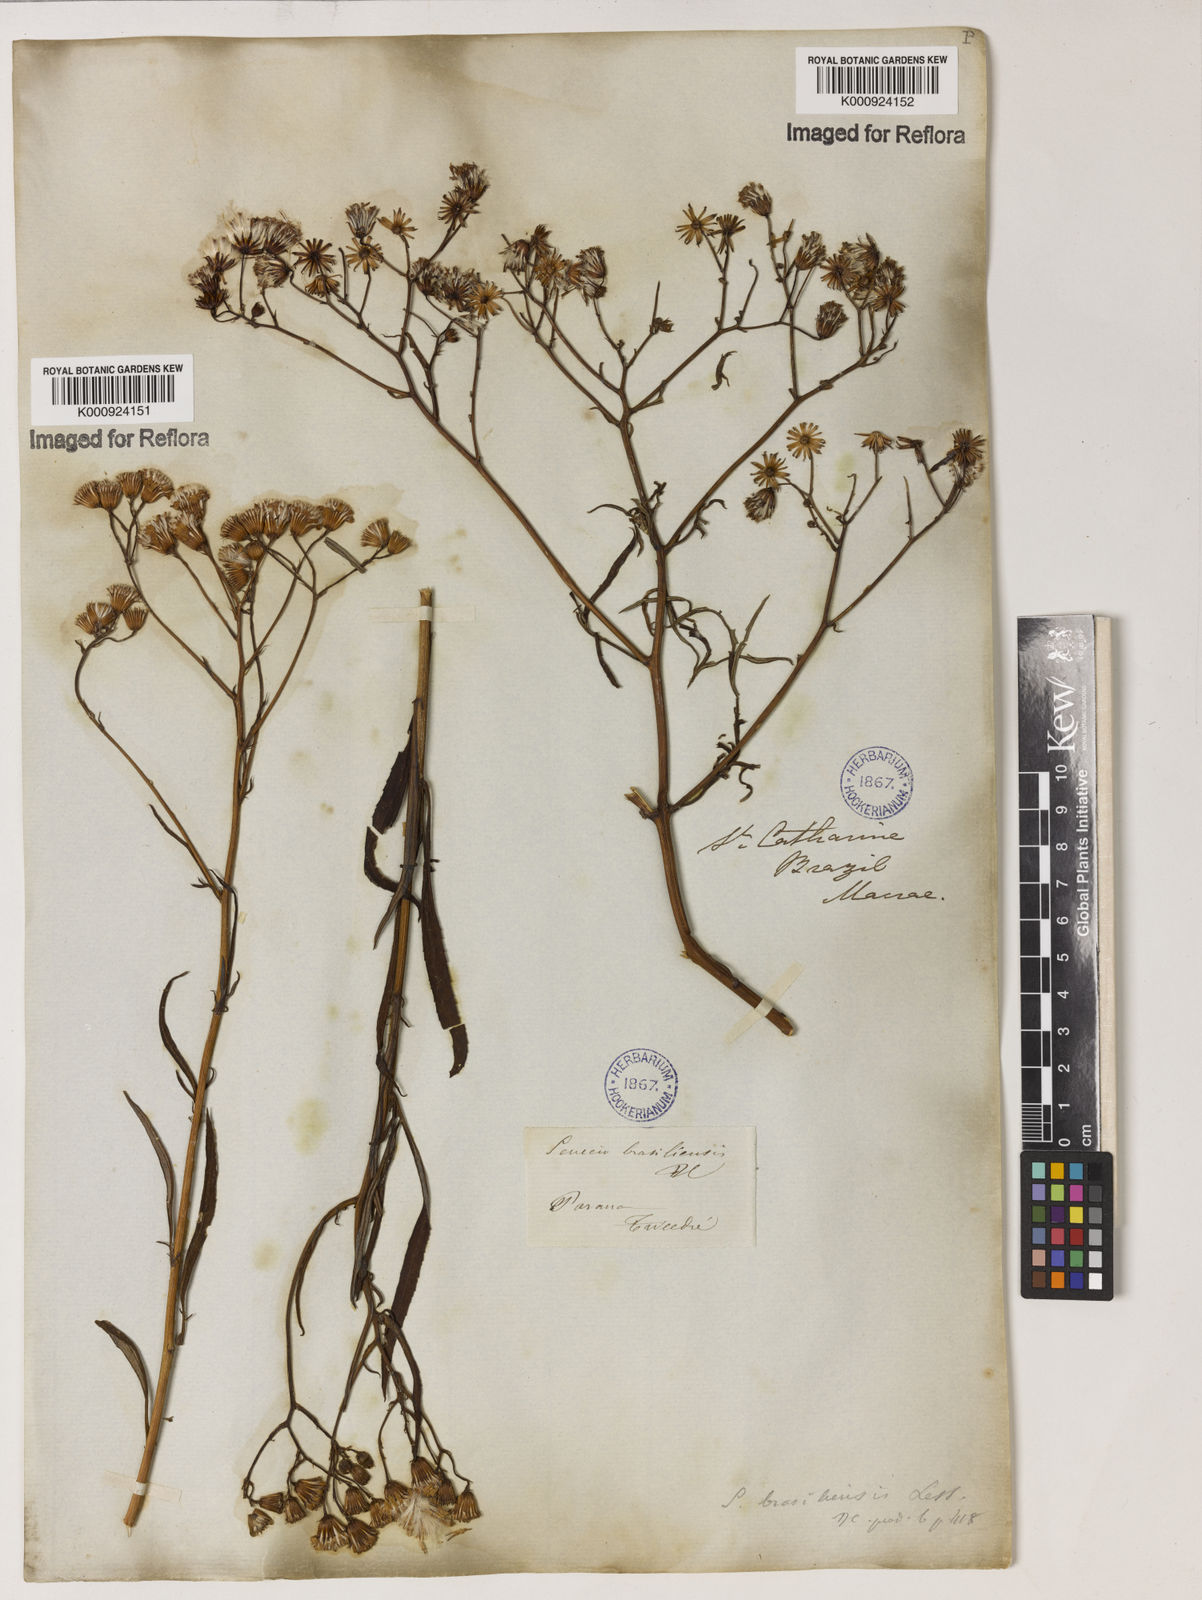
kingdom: Plantae
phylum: Tracheophyta
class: Magnoliopsida
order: Asterales
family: Asteraceae
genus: Senecio
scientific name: Senecio brasiliensis
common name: Hemp-leaf ragwort
